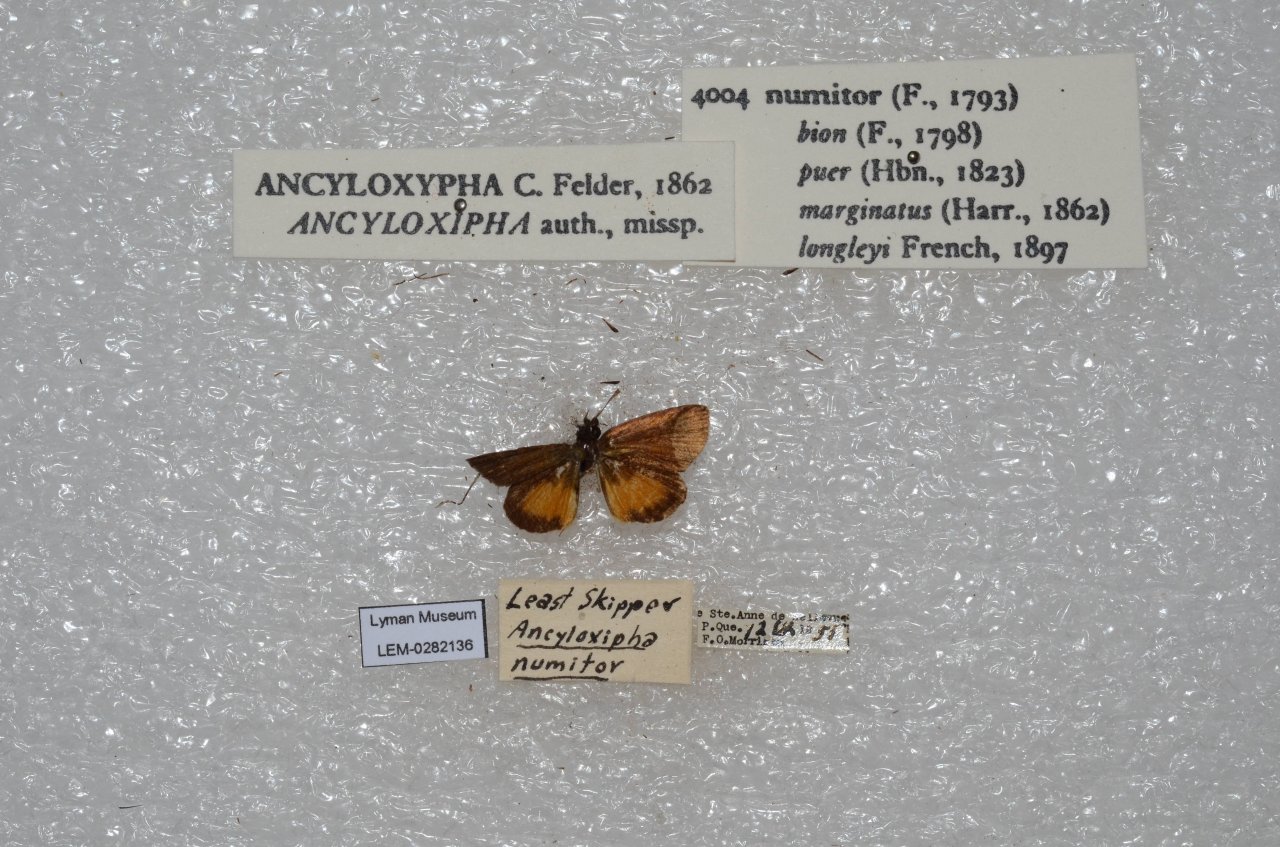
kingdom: Animalia
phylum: Arthropoda
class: Insecta
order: Lepidoptera
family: Hesperiidae
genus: Ancyloxypha
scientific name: Ancyloxypha numitor
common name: Least Skipper
